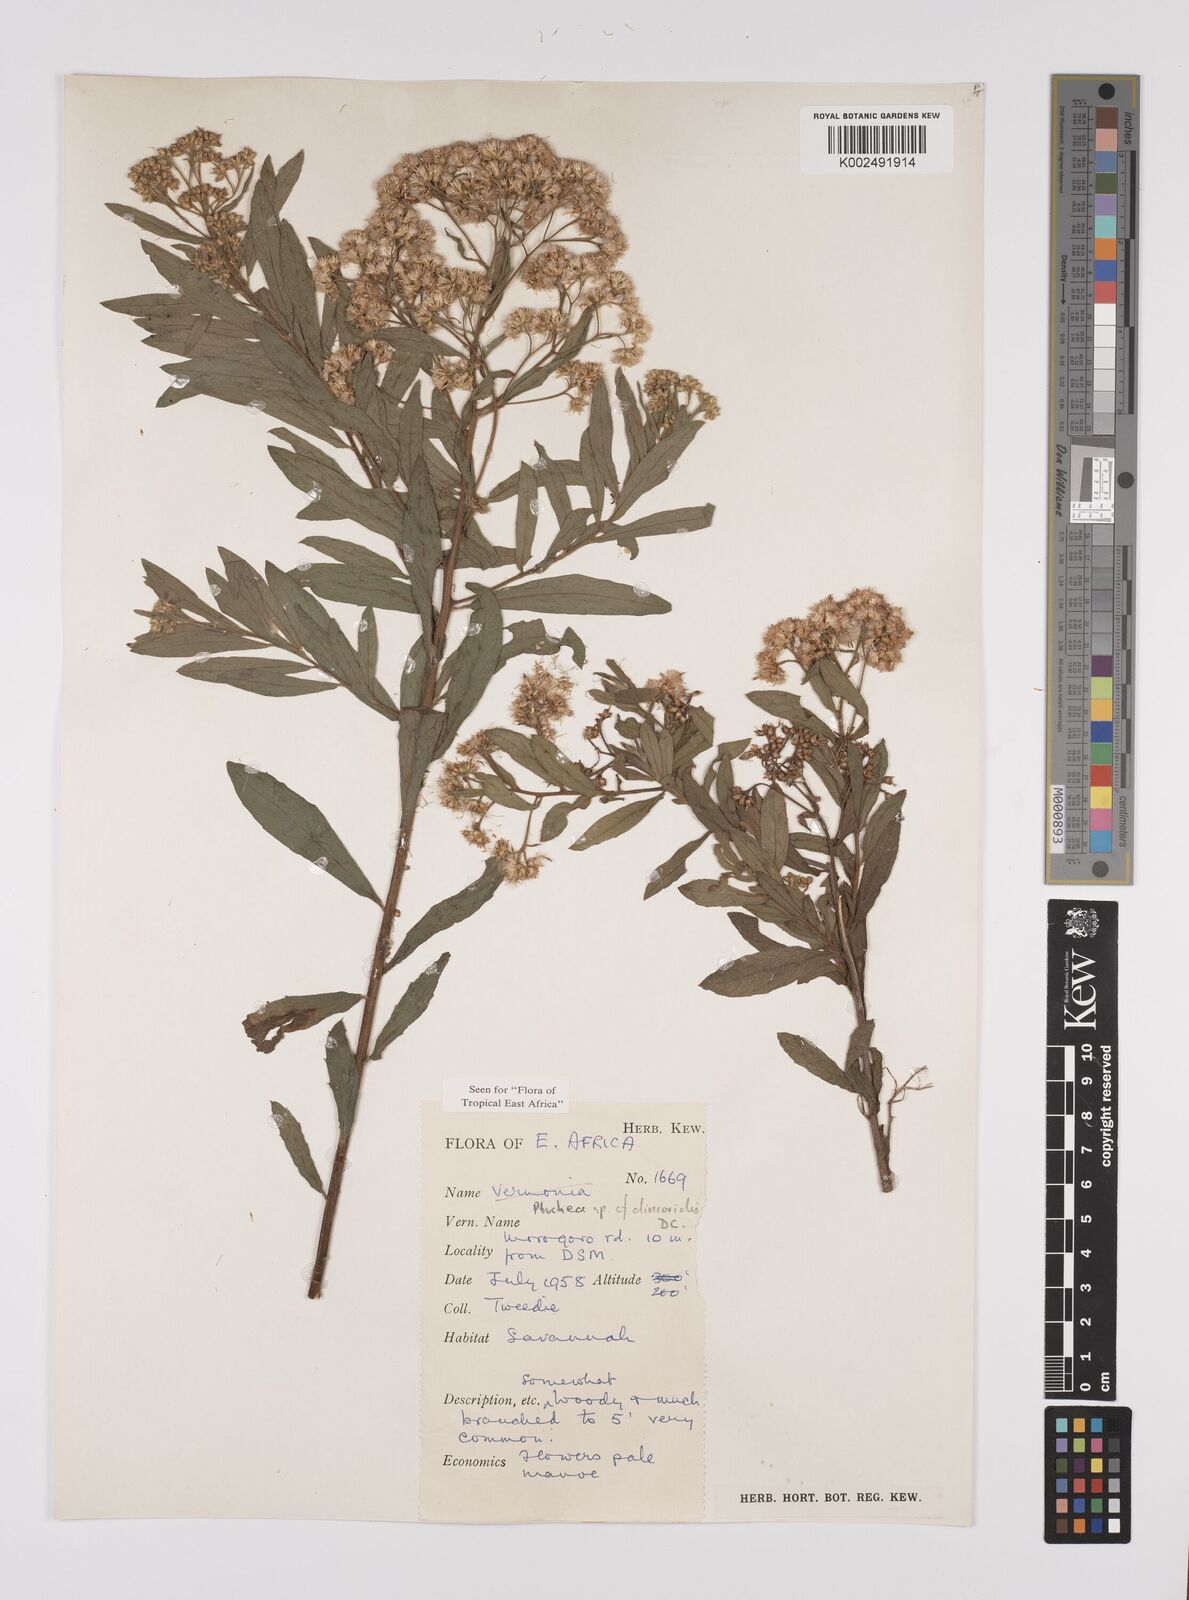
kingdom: Plantae
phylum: Tracheophyta
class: Magnoliopsida
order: Asterales
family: Asteraceae
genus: Pluchea
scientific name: Pluchea dioscoridis
